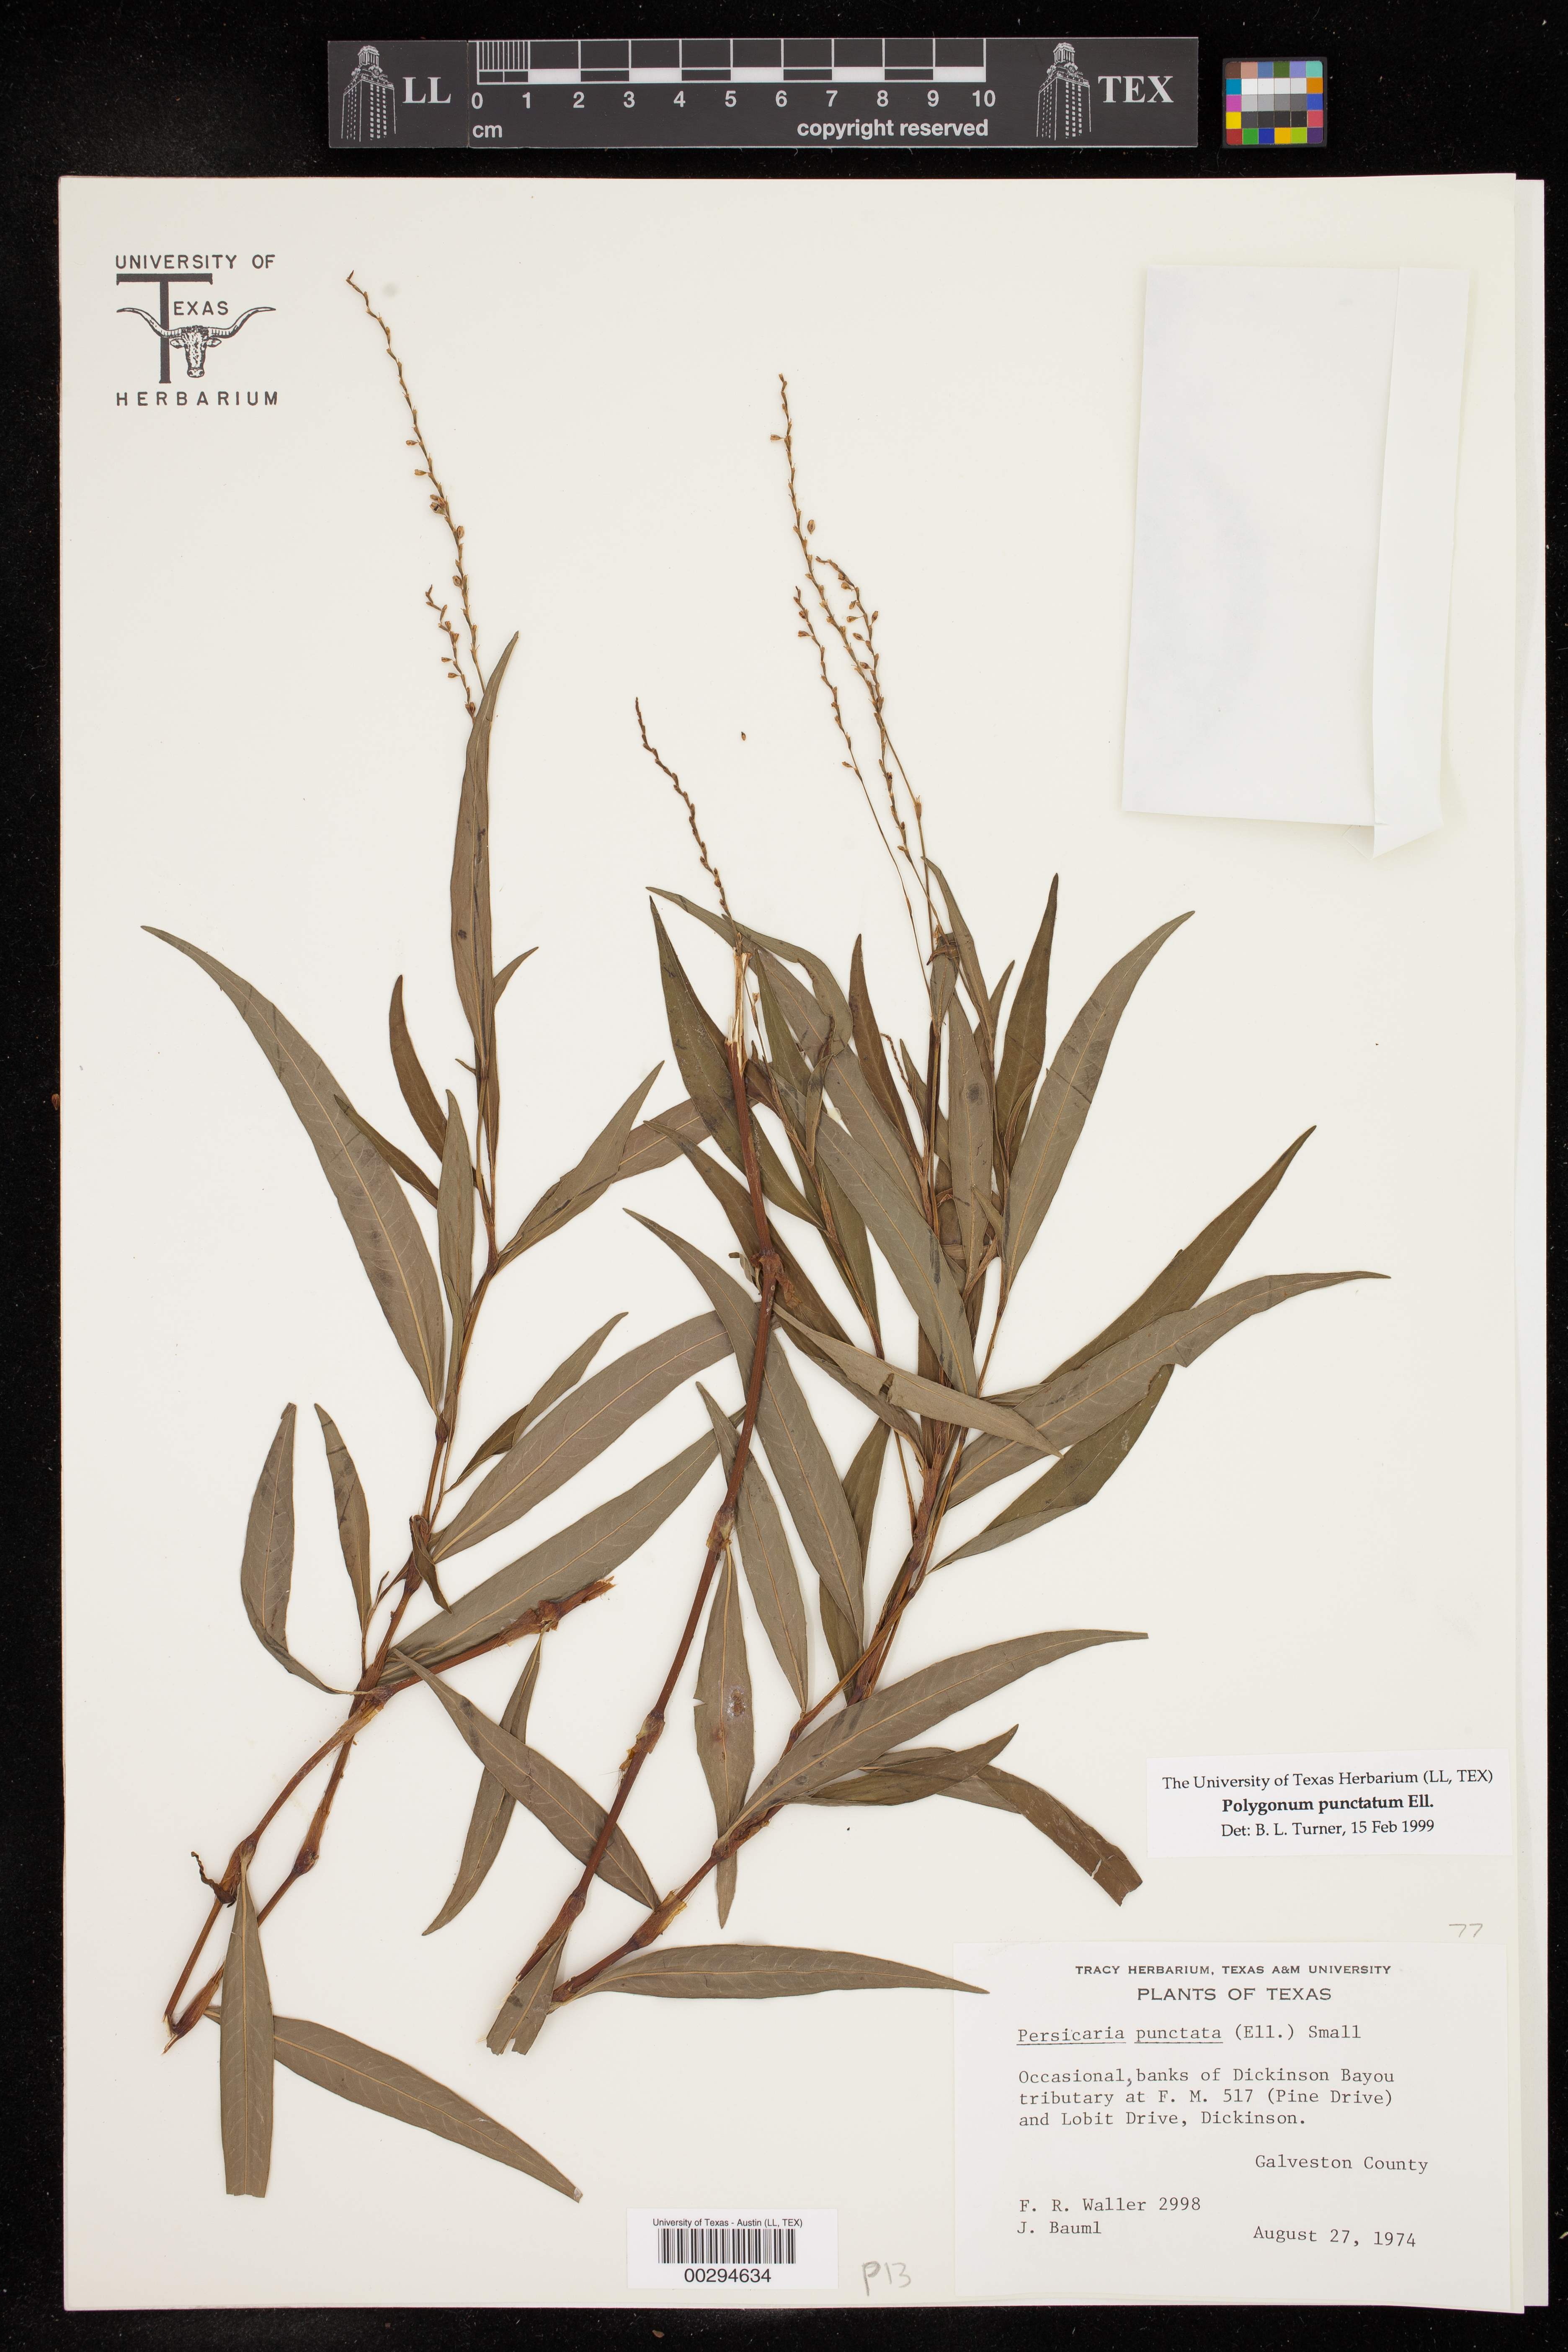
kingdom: Plantae
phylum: Tracheophyta
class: Magnoliopsida
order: Caryophyllales
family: Polygonaceae
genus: Persicaria
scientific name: Persicaria punctata
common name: Dotted smartweed
